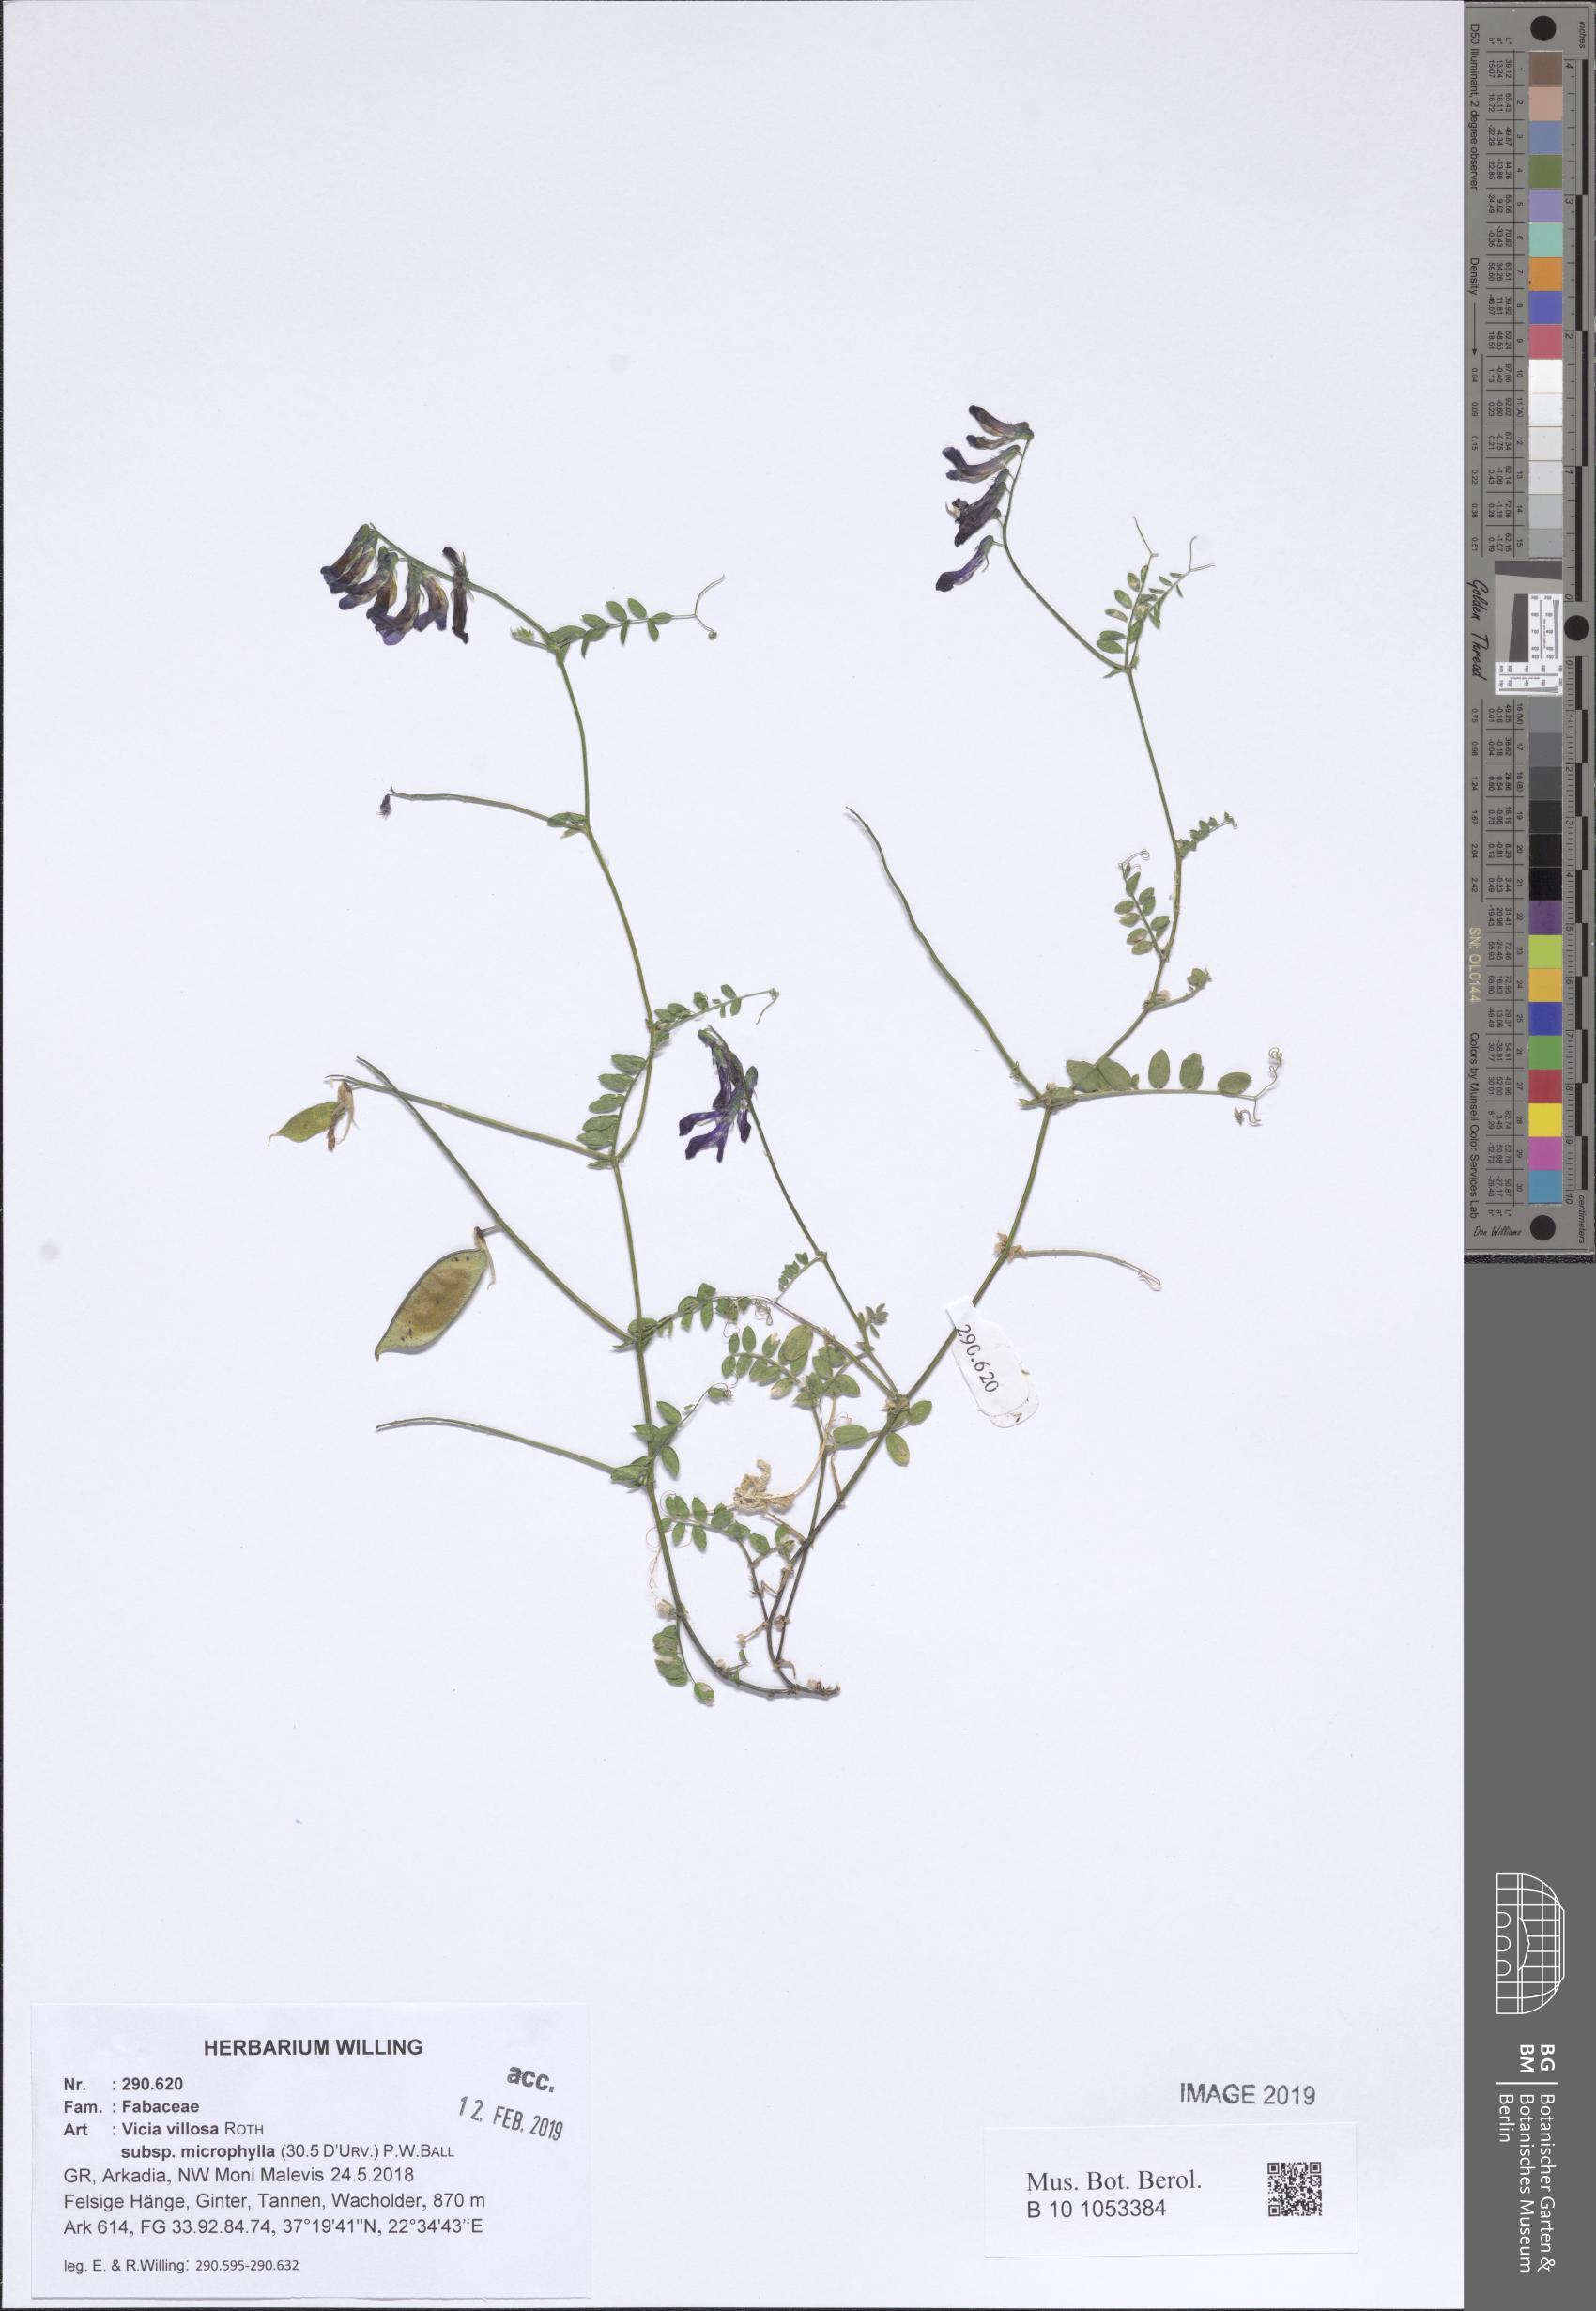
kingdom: Plantae
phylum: Tracheophyta
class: Magnoliopsida
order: Fabales
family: Fabaceae
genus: Vicia
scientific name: Vicia villosa
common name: Fodder vetch
